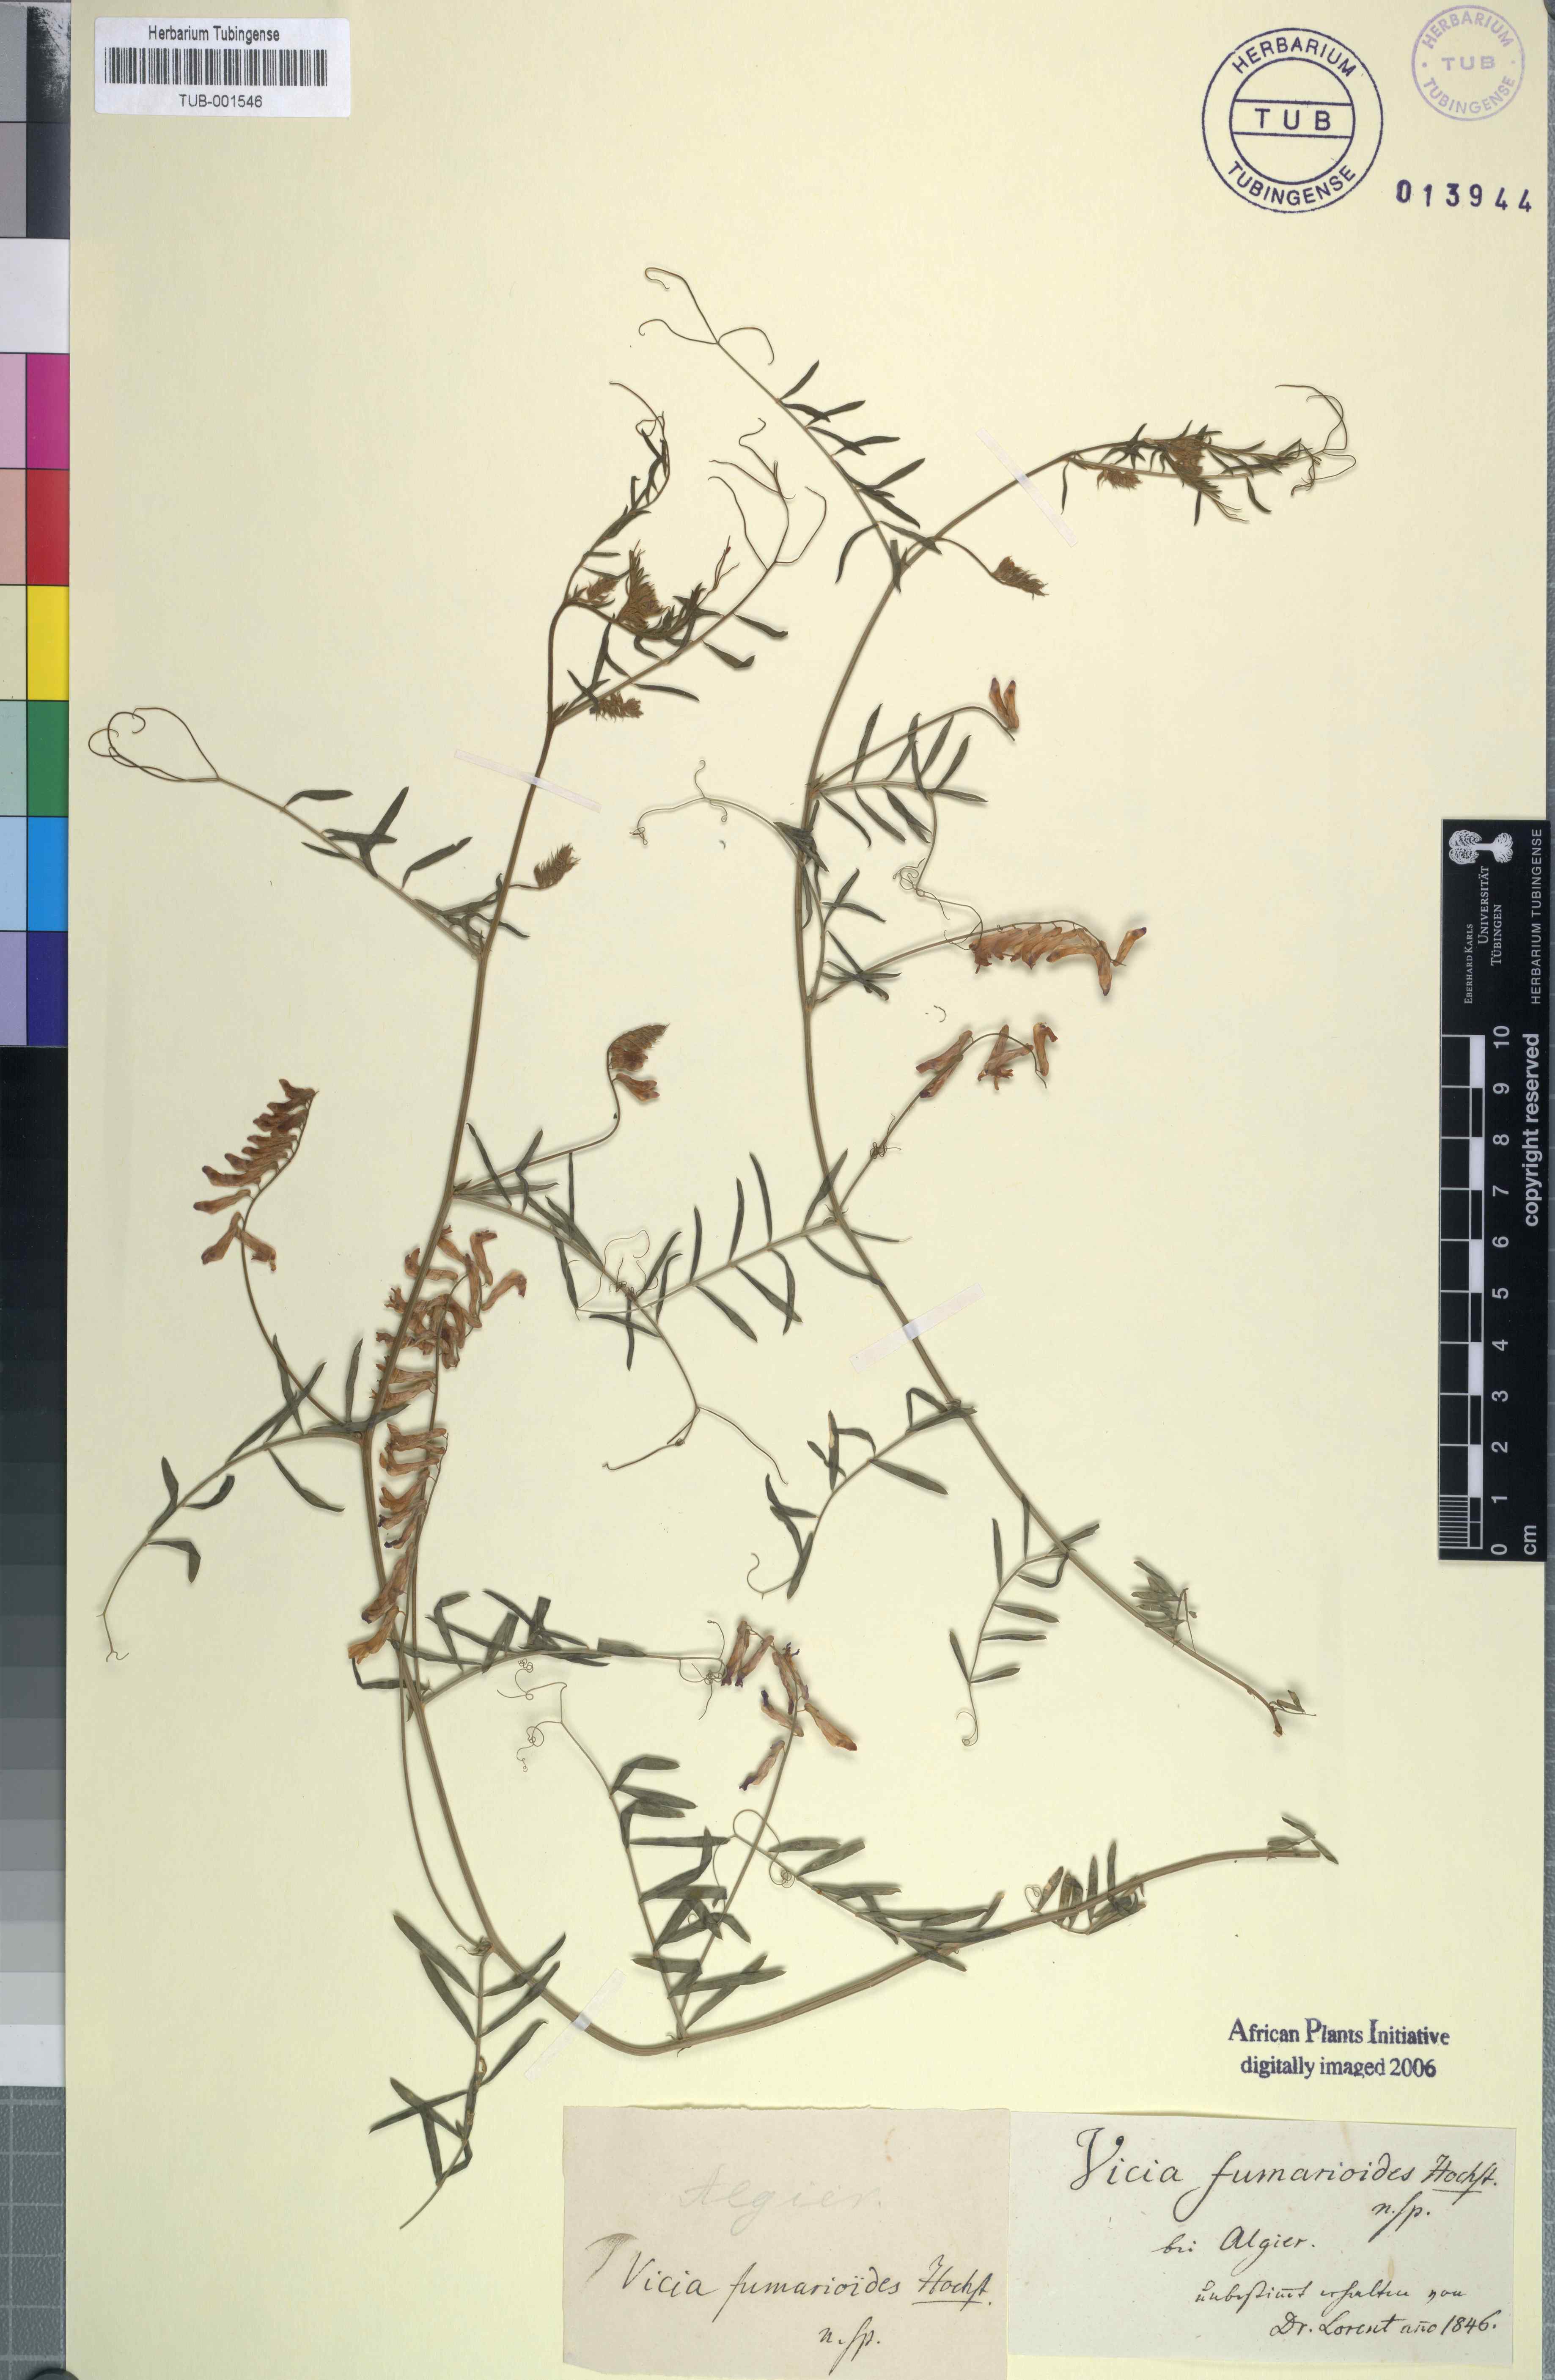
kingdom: Plantae
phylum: Tracheophyta
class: Magnoliopsida
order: Fabales
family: Fabaceae
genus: Vicia
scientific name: Vicia
